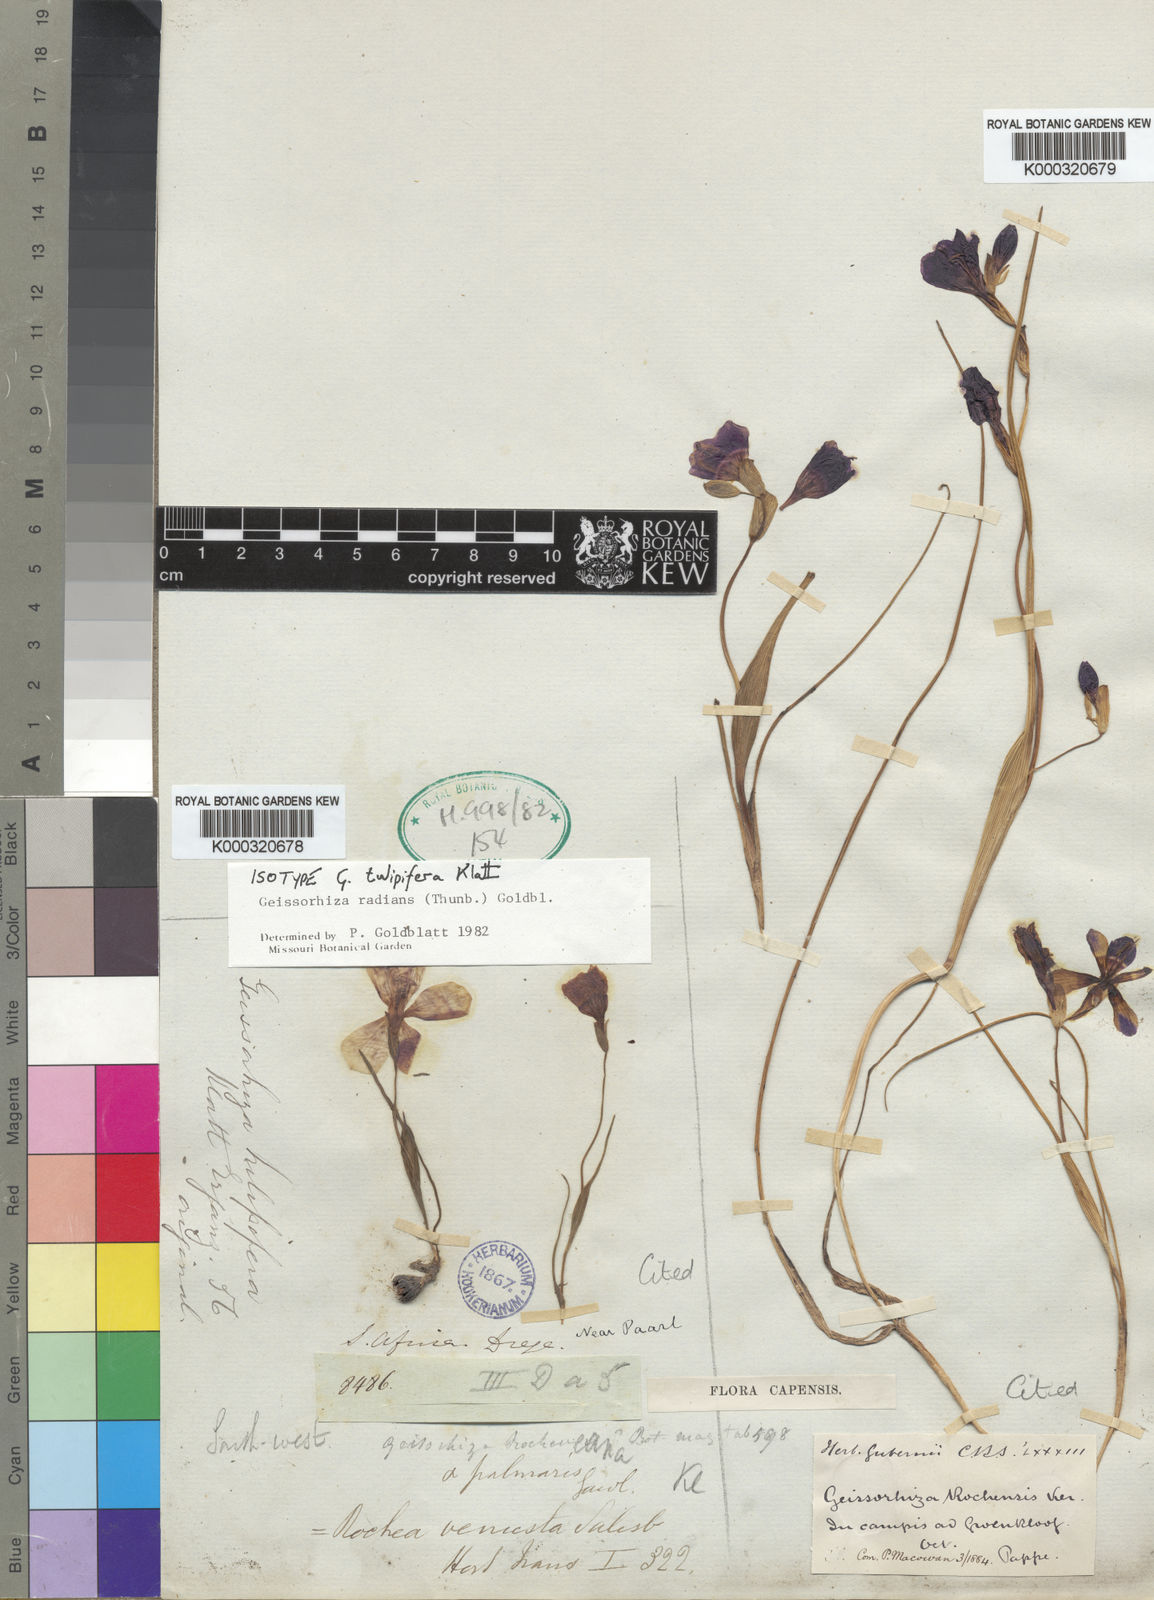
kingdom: Plantae
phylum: Tracheophyta
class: Liliopsida
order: Asparagales
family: Iridaceae
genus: Geissorhiza
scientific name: Geissorhiza radians
